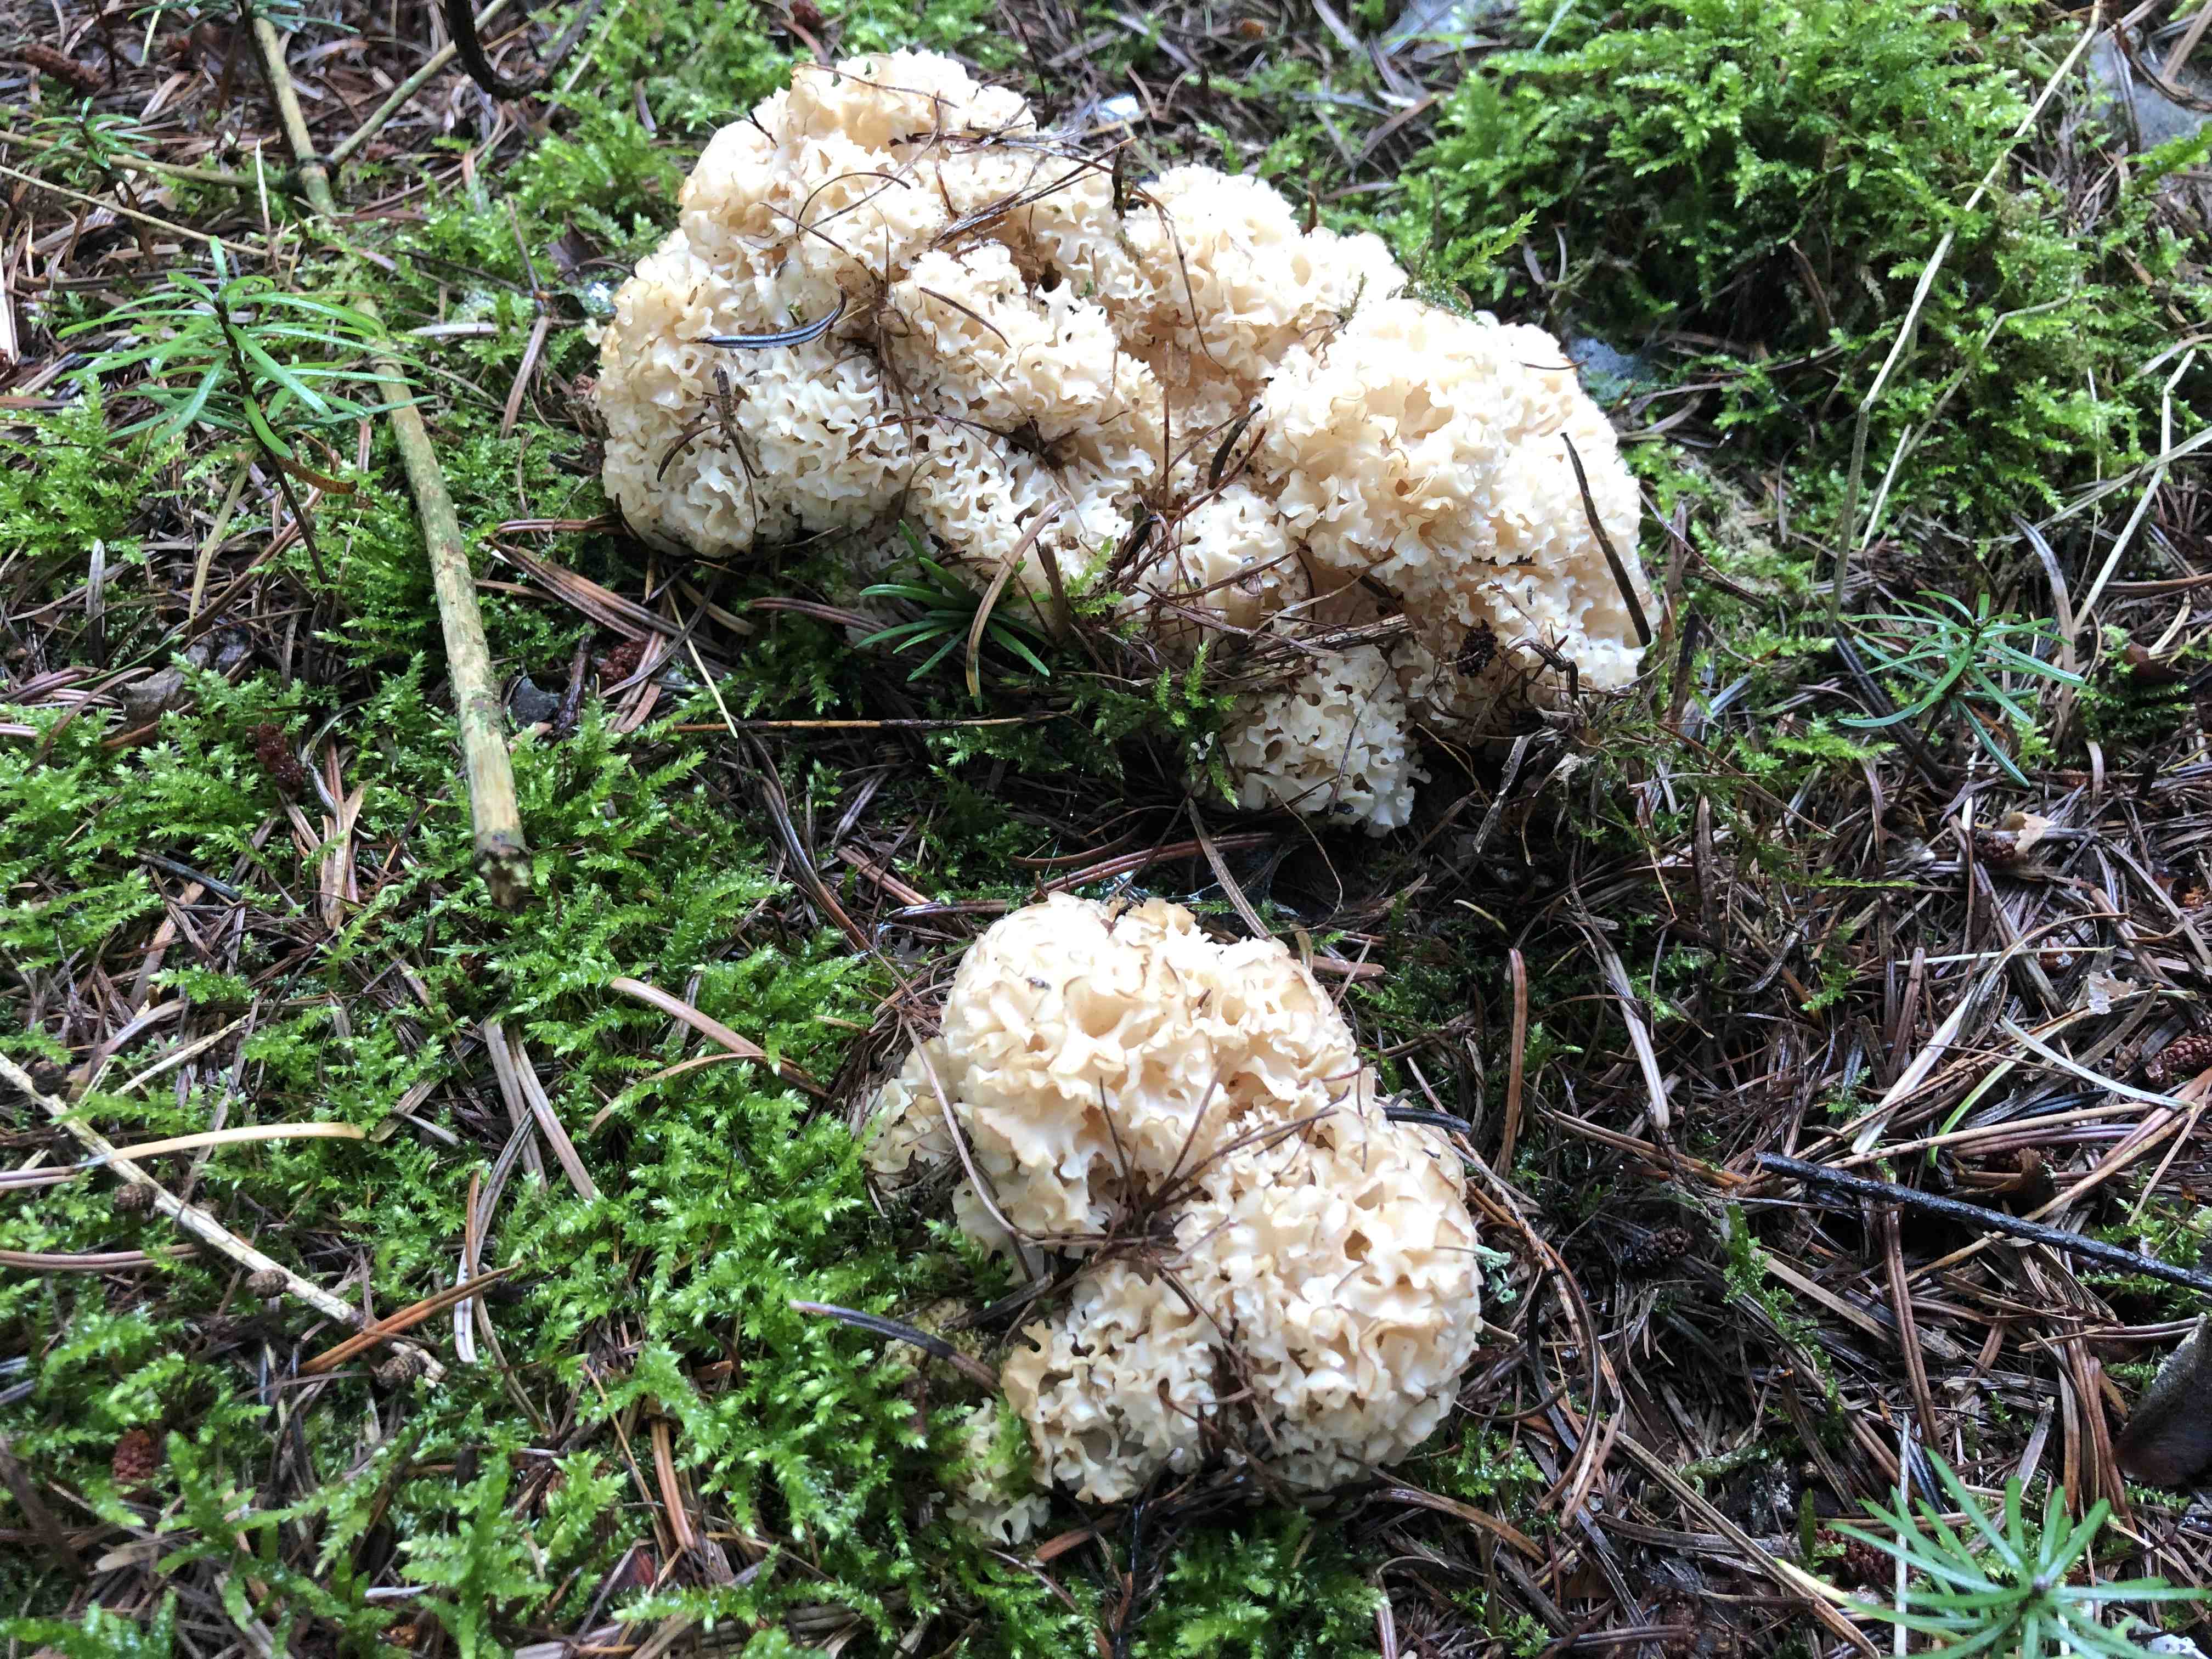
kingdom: Fungi
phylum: Basidiomycota
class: Agaricomycetes
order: Polyporales
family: Sparassidaceae
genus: Sparassis
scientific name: Sparassis crispa
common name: kruset blomkålssvamp
